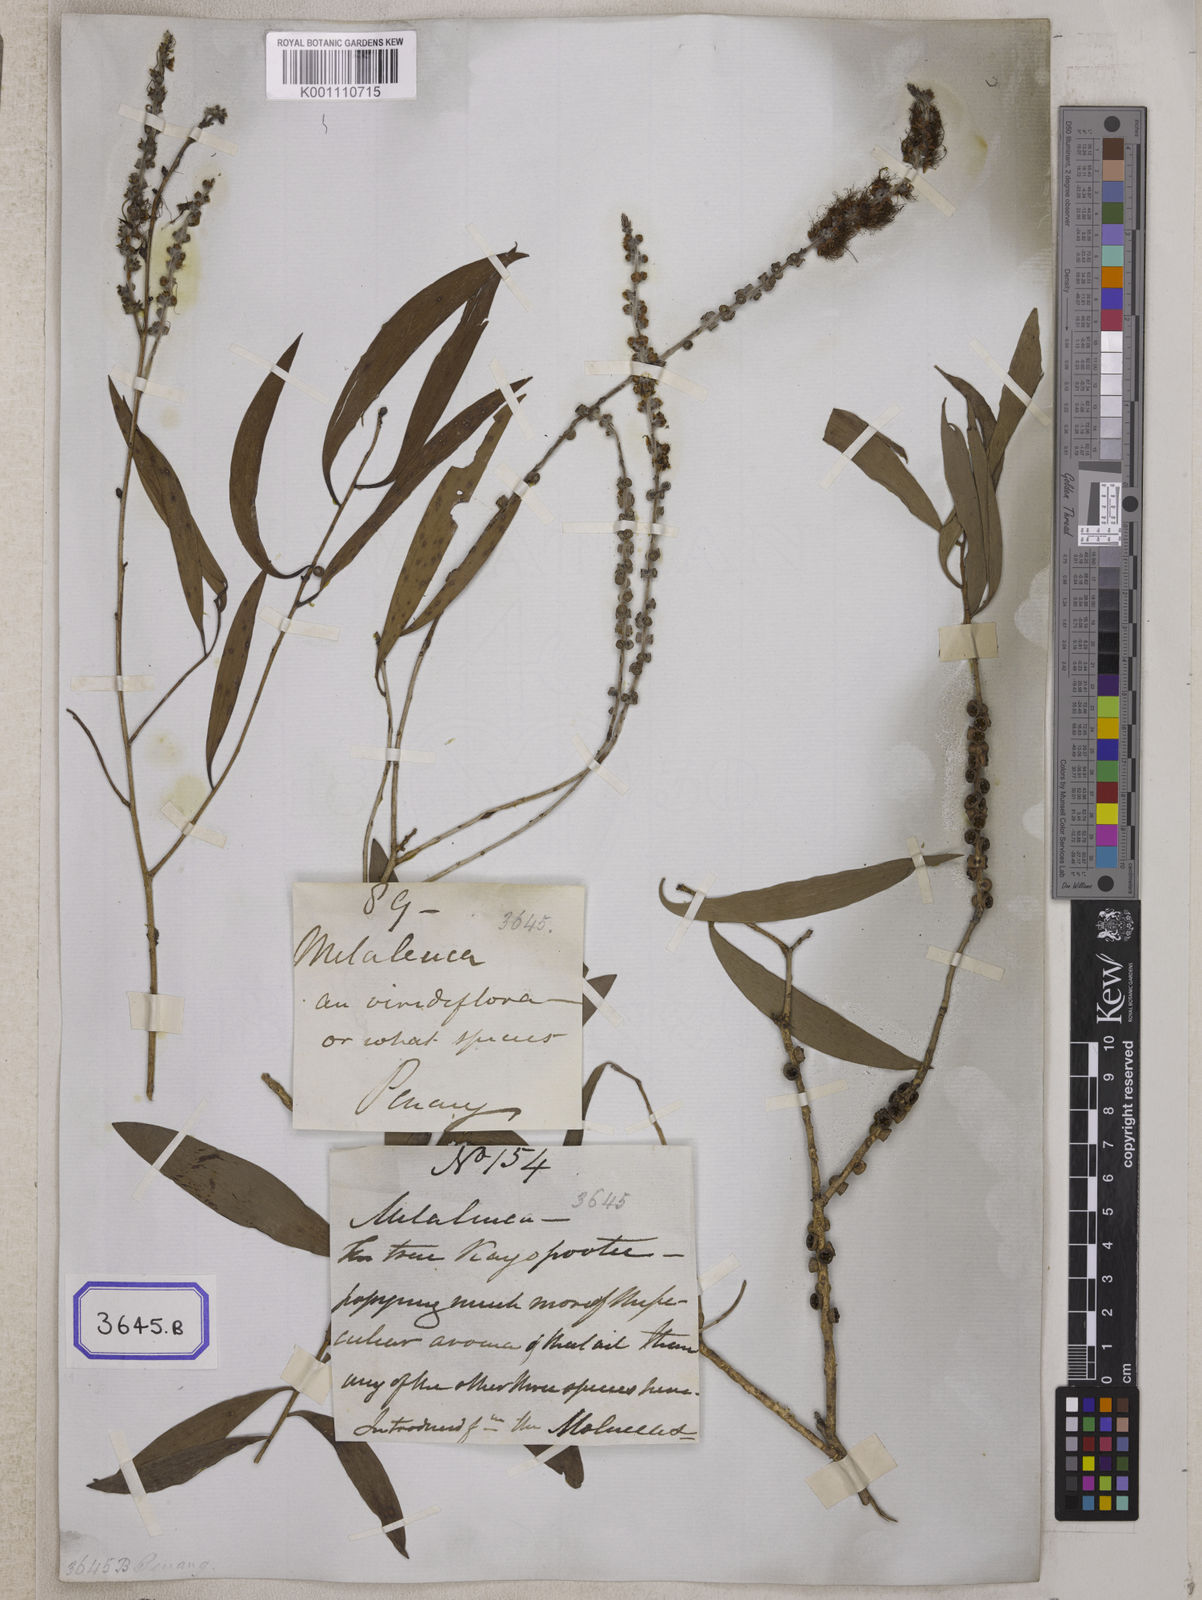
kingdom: Plantae
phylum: Tracheophyta
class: Magnoliopsida
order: Myrtales
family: Myrtaceae
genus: Melaleuca
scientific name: Melaleuca cajuputi
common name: Cajuput
